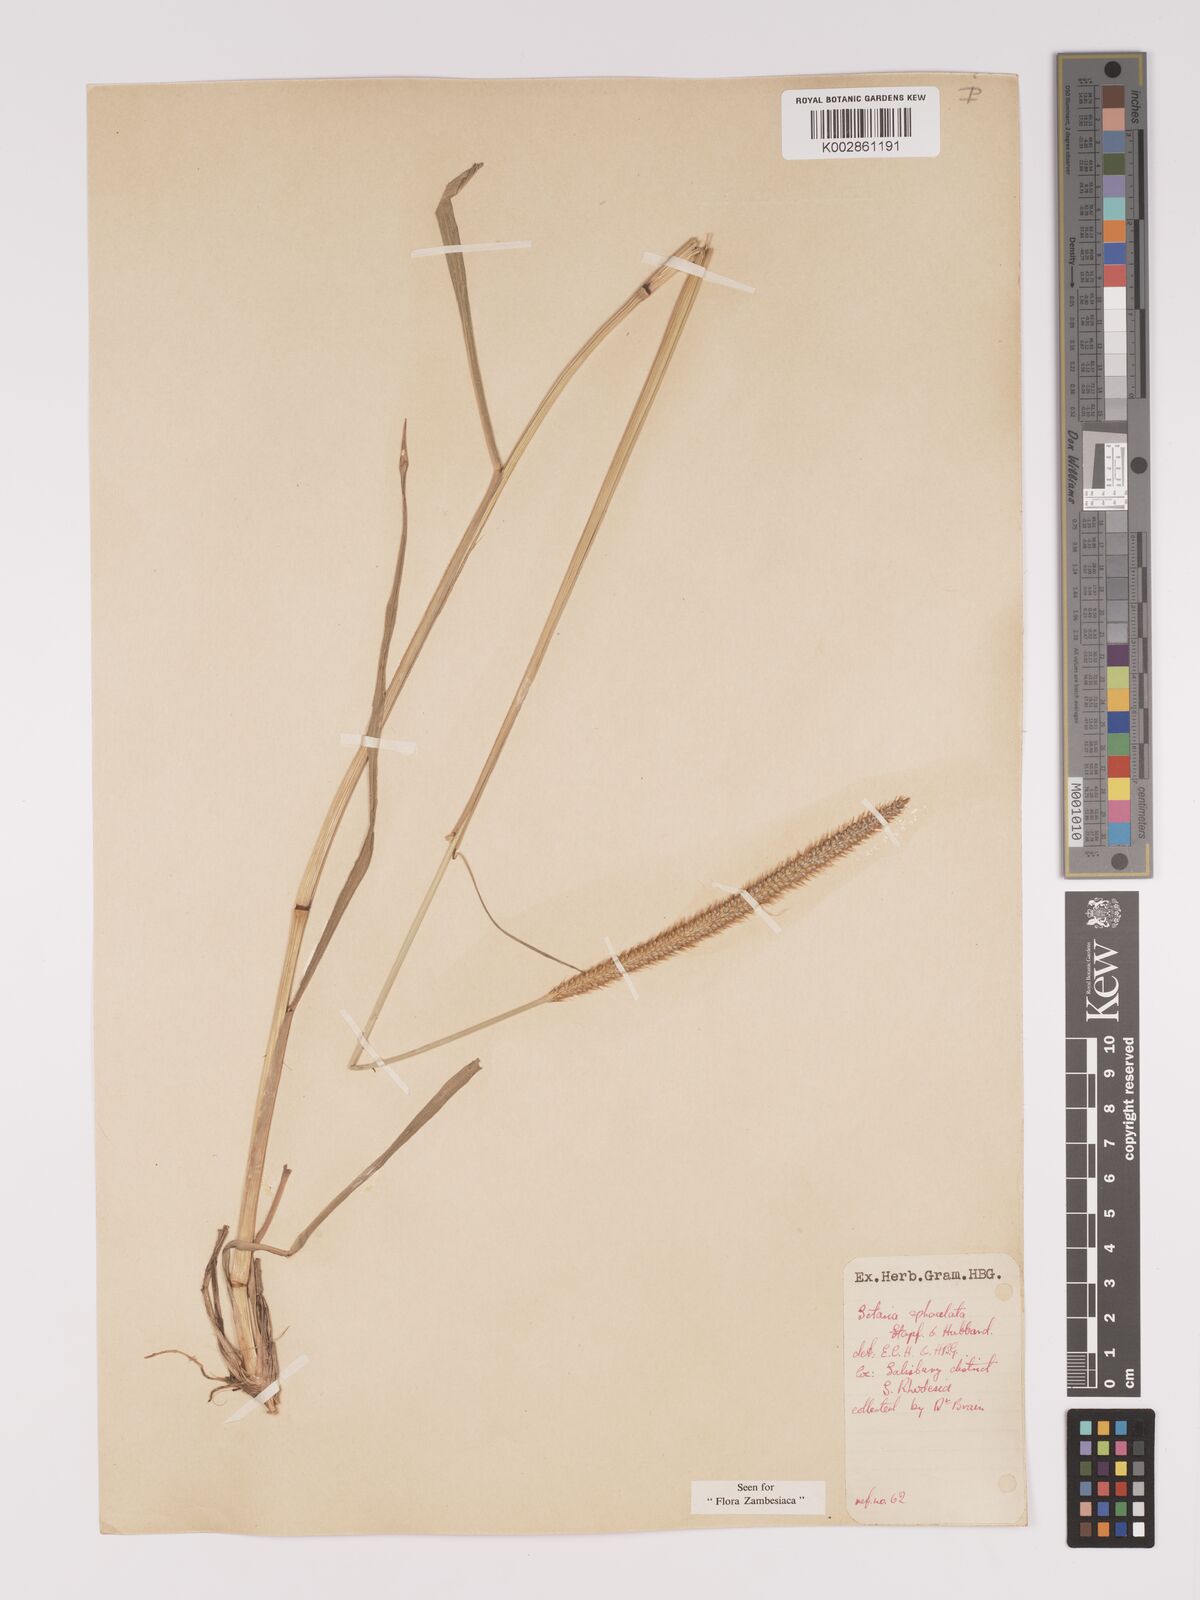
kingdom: Plantae
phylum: Tracheophyta
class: Liliopsida
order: Poales
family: Poaceae
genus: Setaria
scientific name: Setaria sphacelata
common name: African bristlegrass
